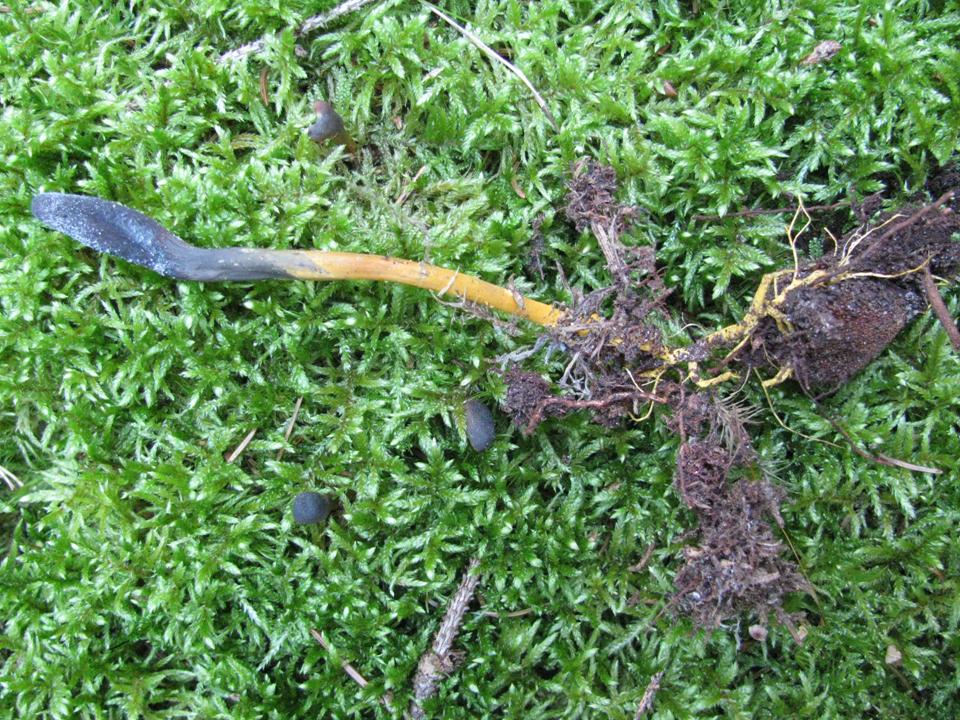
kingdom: Fungi
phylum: Ascomycota
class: Sordariomycetes
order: Hypocreales
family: Ophiocordycipitaceae
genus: Tolypocladium
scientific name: Tolypocladium ophioglossoides
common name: slank snyltekølle
